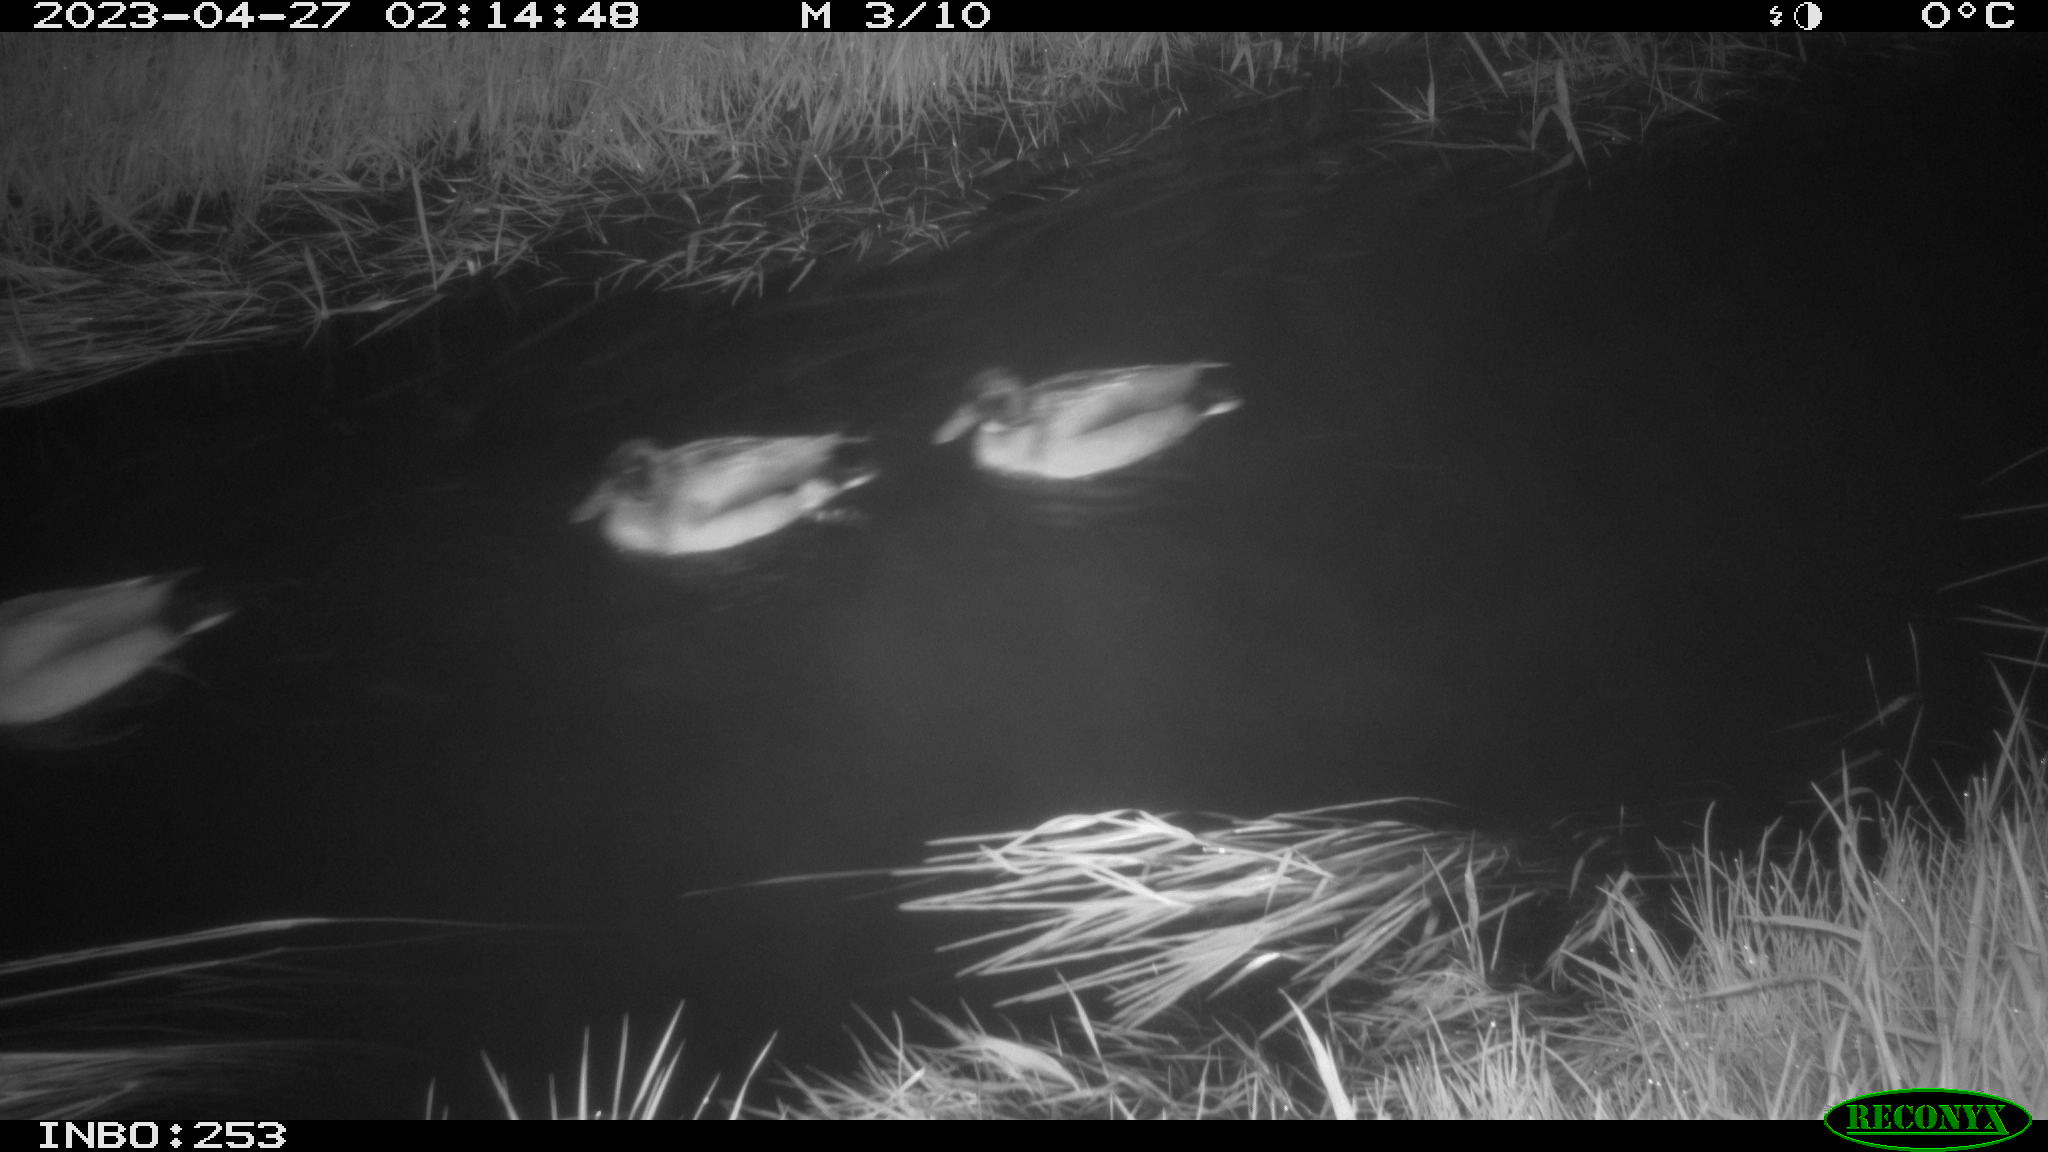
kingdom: Animalia
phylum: Chordata
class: Aves
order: Anseriformes
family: Anatidae
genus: Anas
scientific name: Anas
